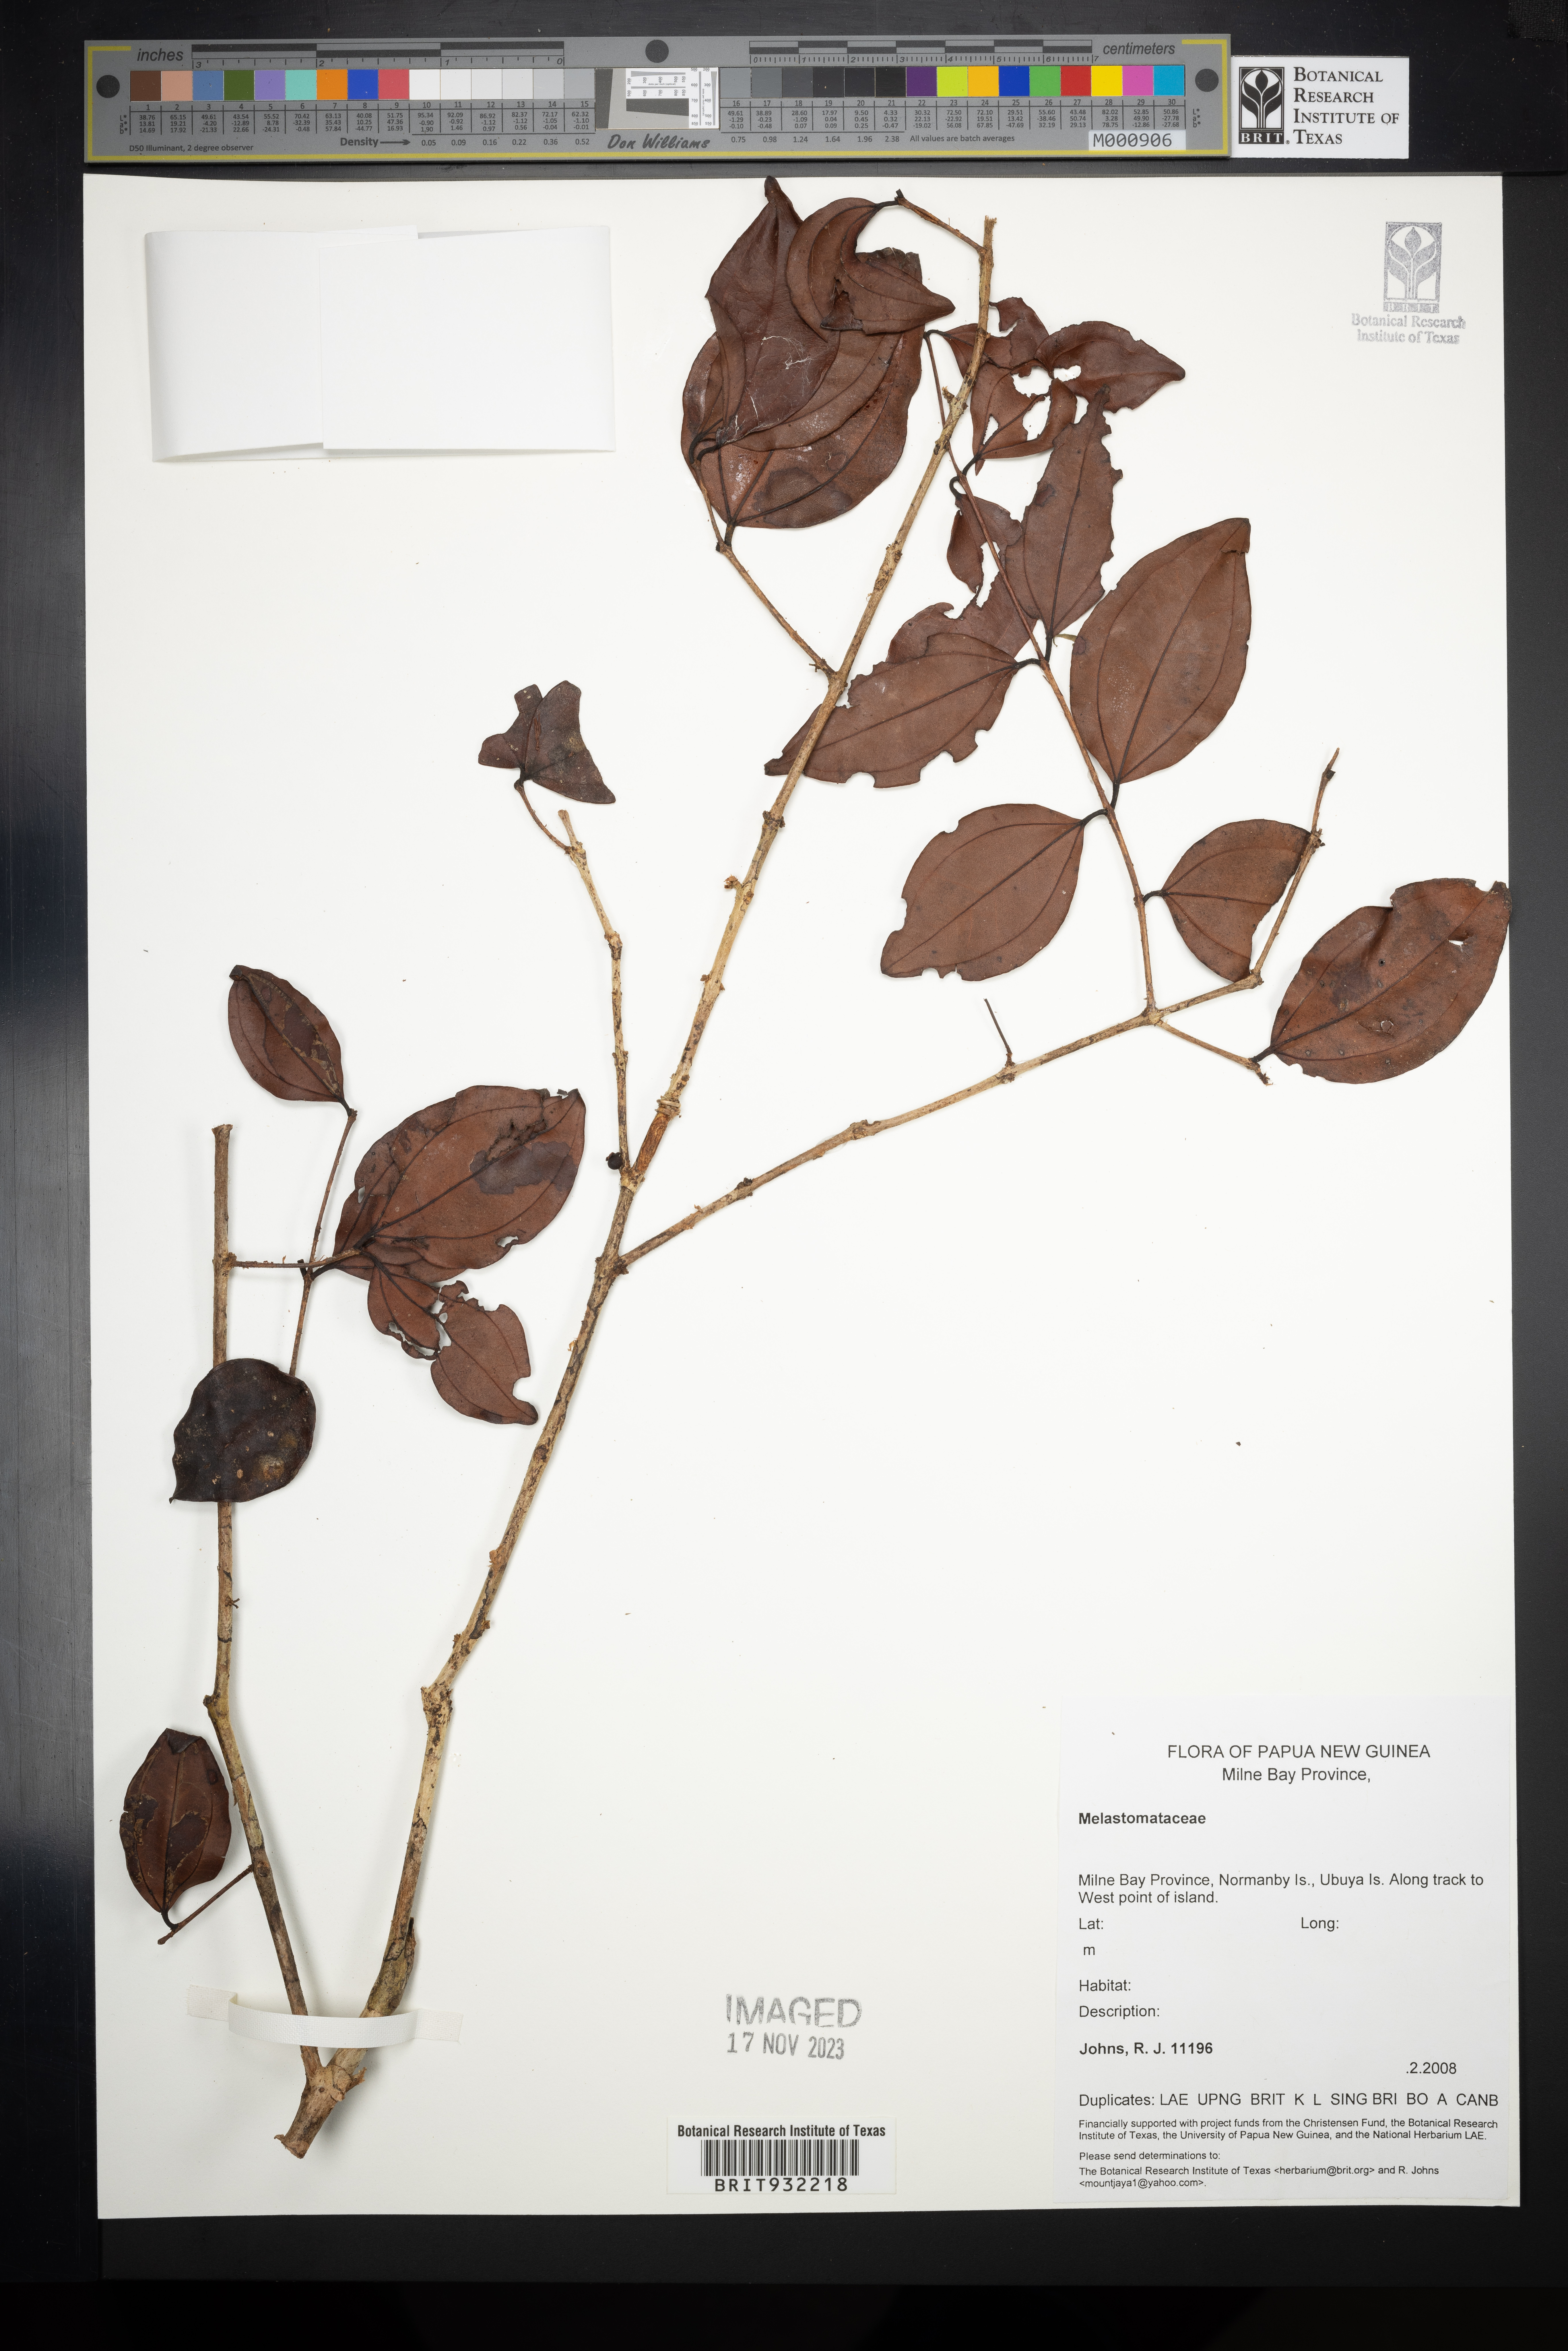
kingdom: Plantae
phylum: Tracheophyta
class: Magnoliopsida
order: Myrtales
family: Melastomataceae
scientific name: Melastomataceae
